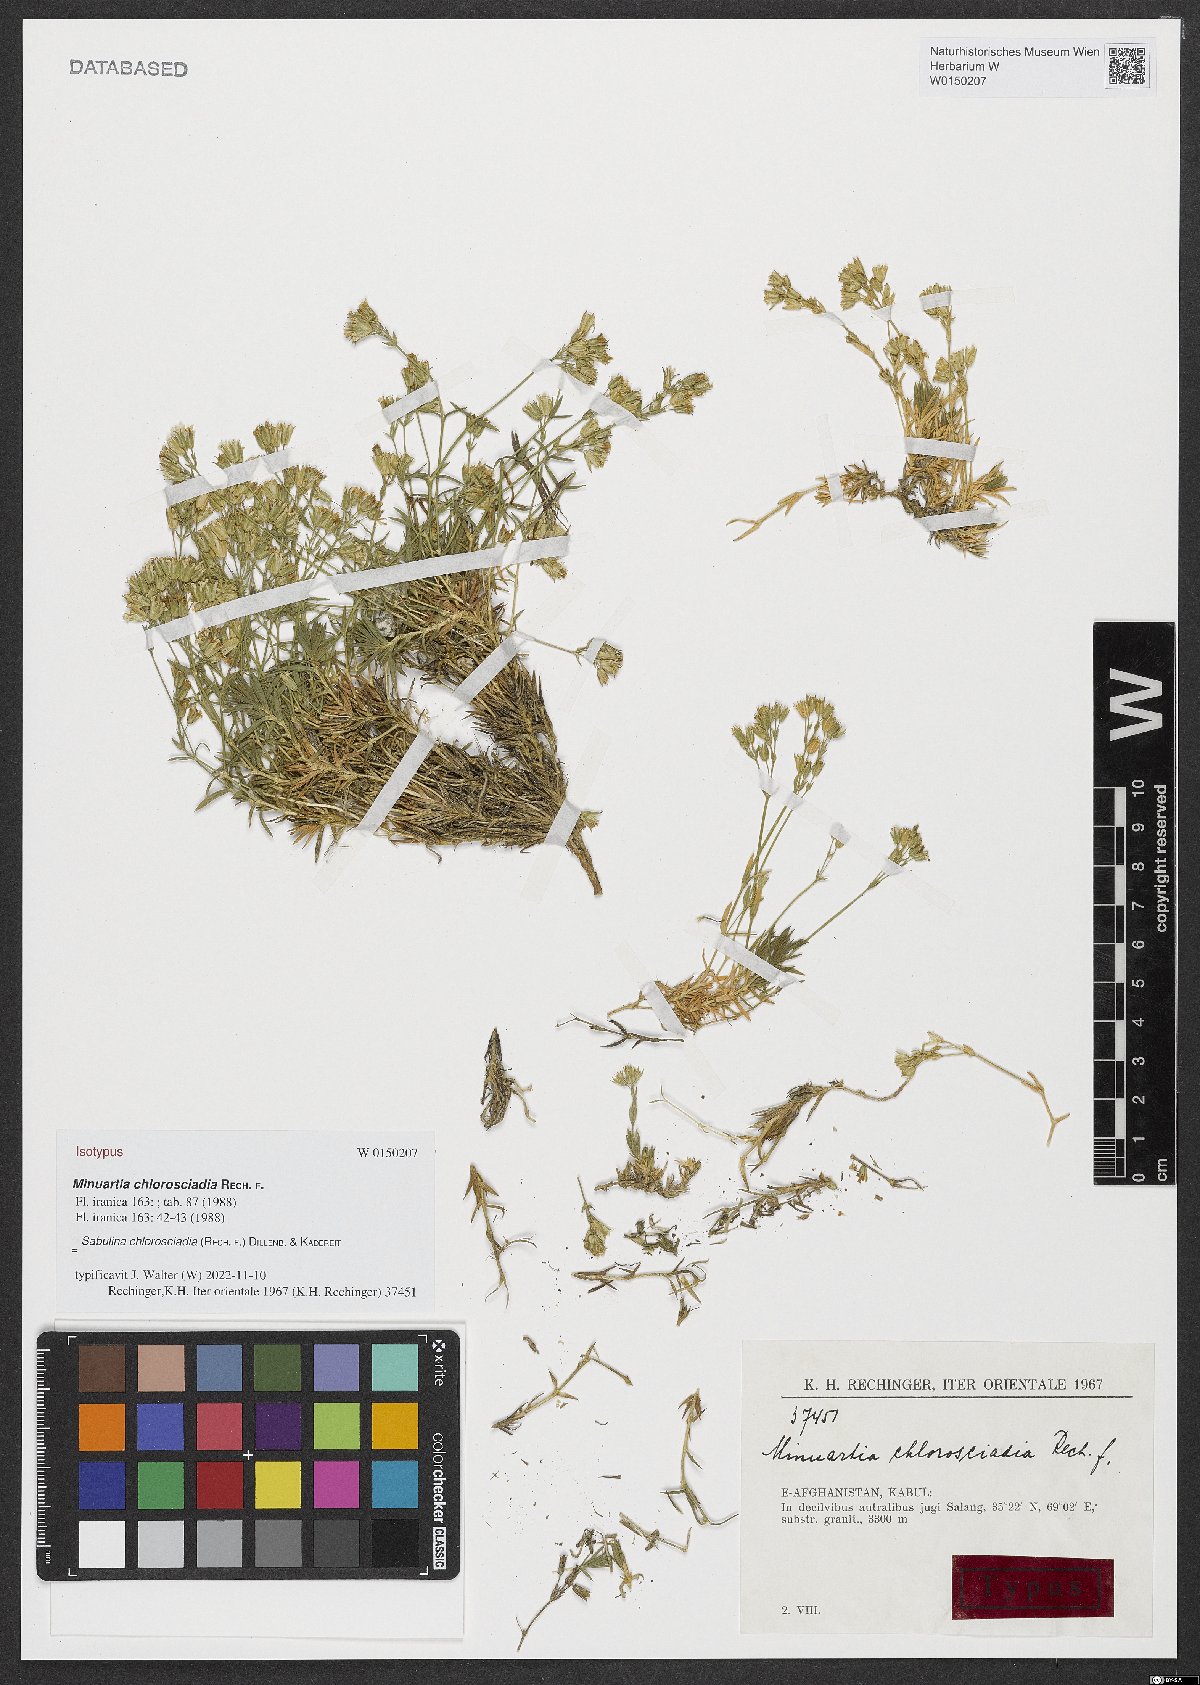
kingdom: Plantae
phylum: Tracheophyta
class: Magnoliopsida
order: Caryophyllales
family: Caryophyllaceae
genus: Sabulina
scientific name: Sabulina chlorosciadia
